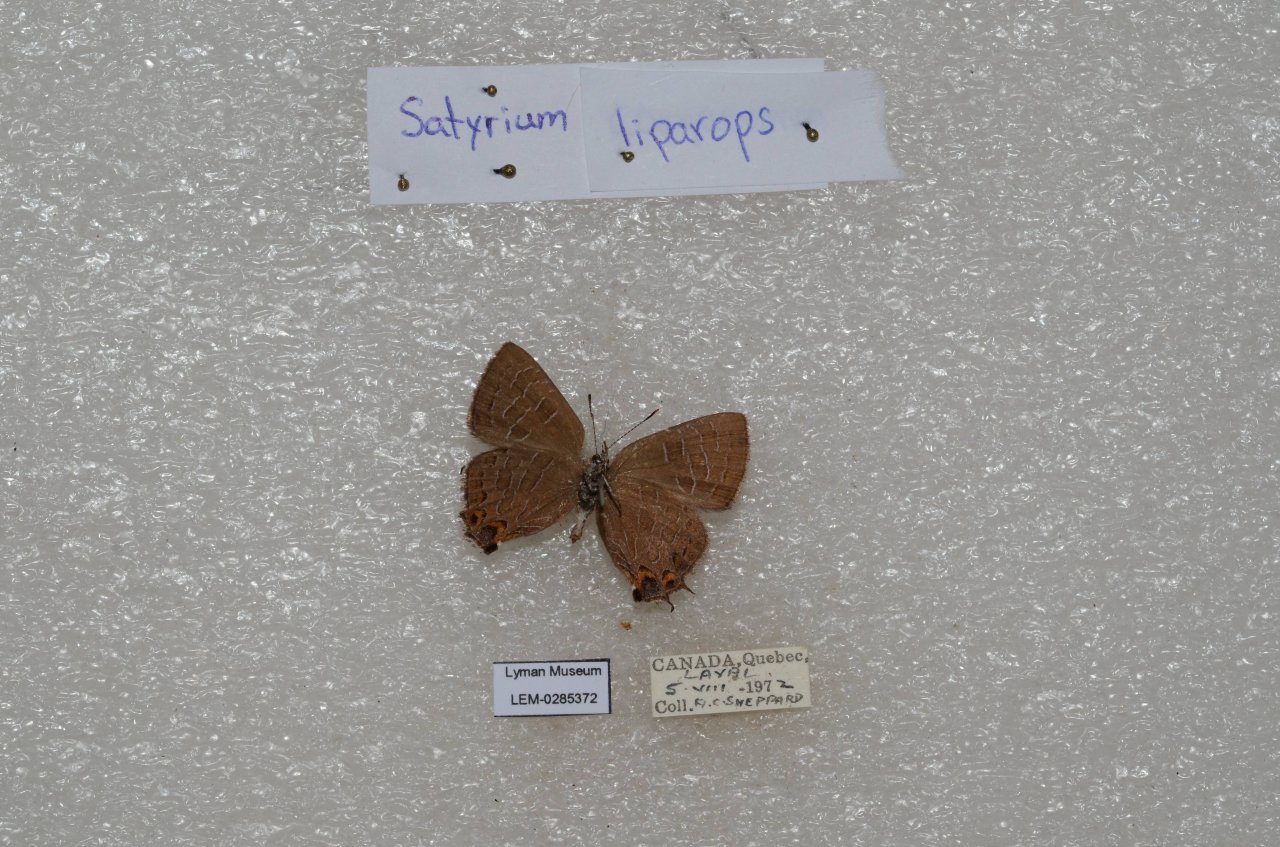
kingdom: Animalia
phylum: Arthropoda
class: Insecta
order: Lepidoptera
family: Lycaenidae
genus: Satyrium
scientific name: Satyrium liparops
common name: Striped Hairstreak
